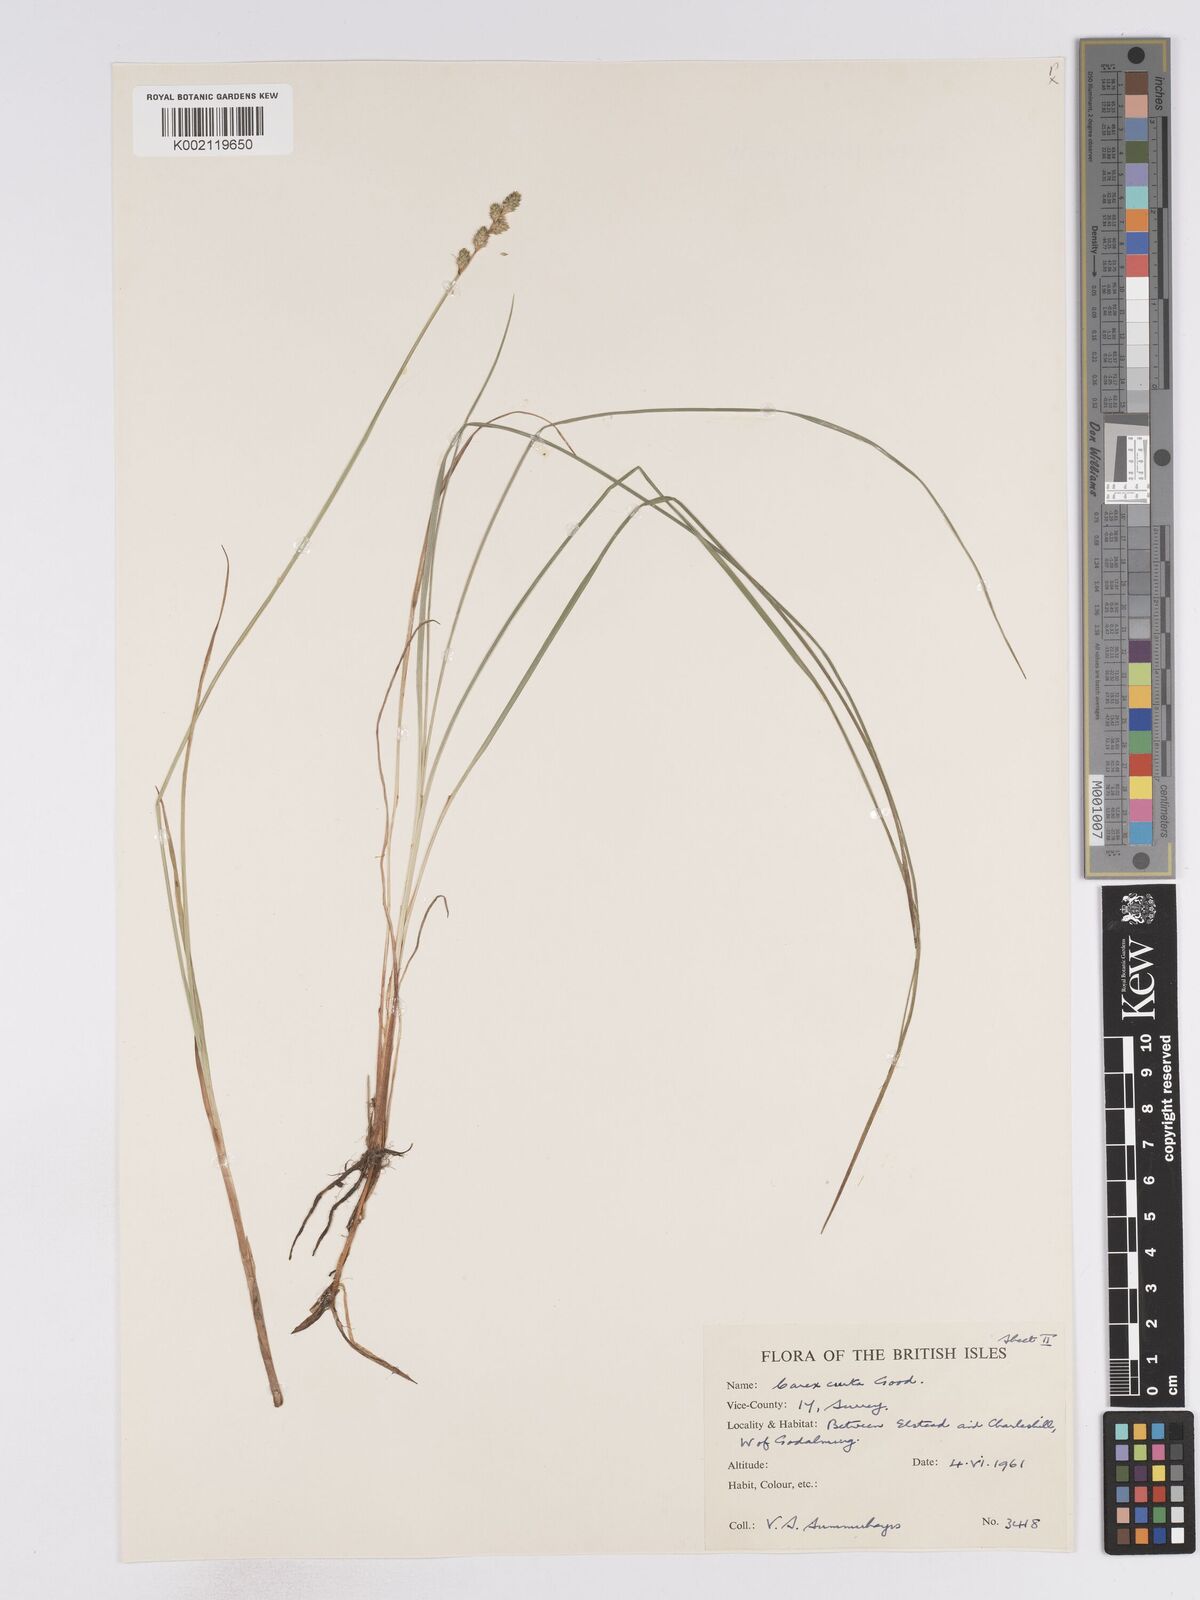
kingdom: Plantae
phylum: Tracheophyta
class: Liliopsida
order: Poales
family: Cyperaceae
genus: Carex
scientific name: Carex curta
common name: White sedge
